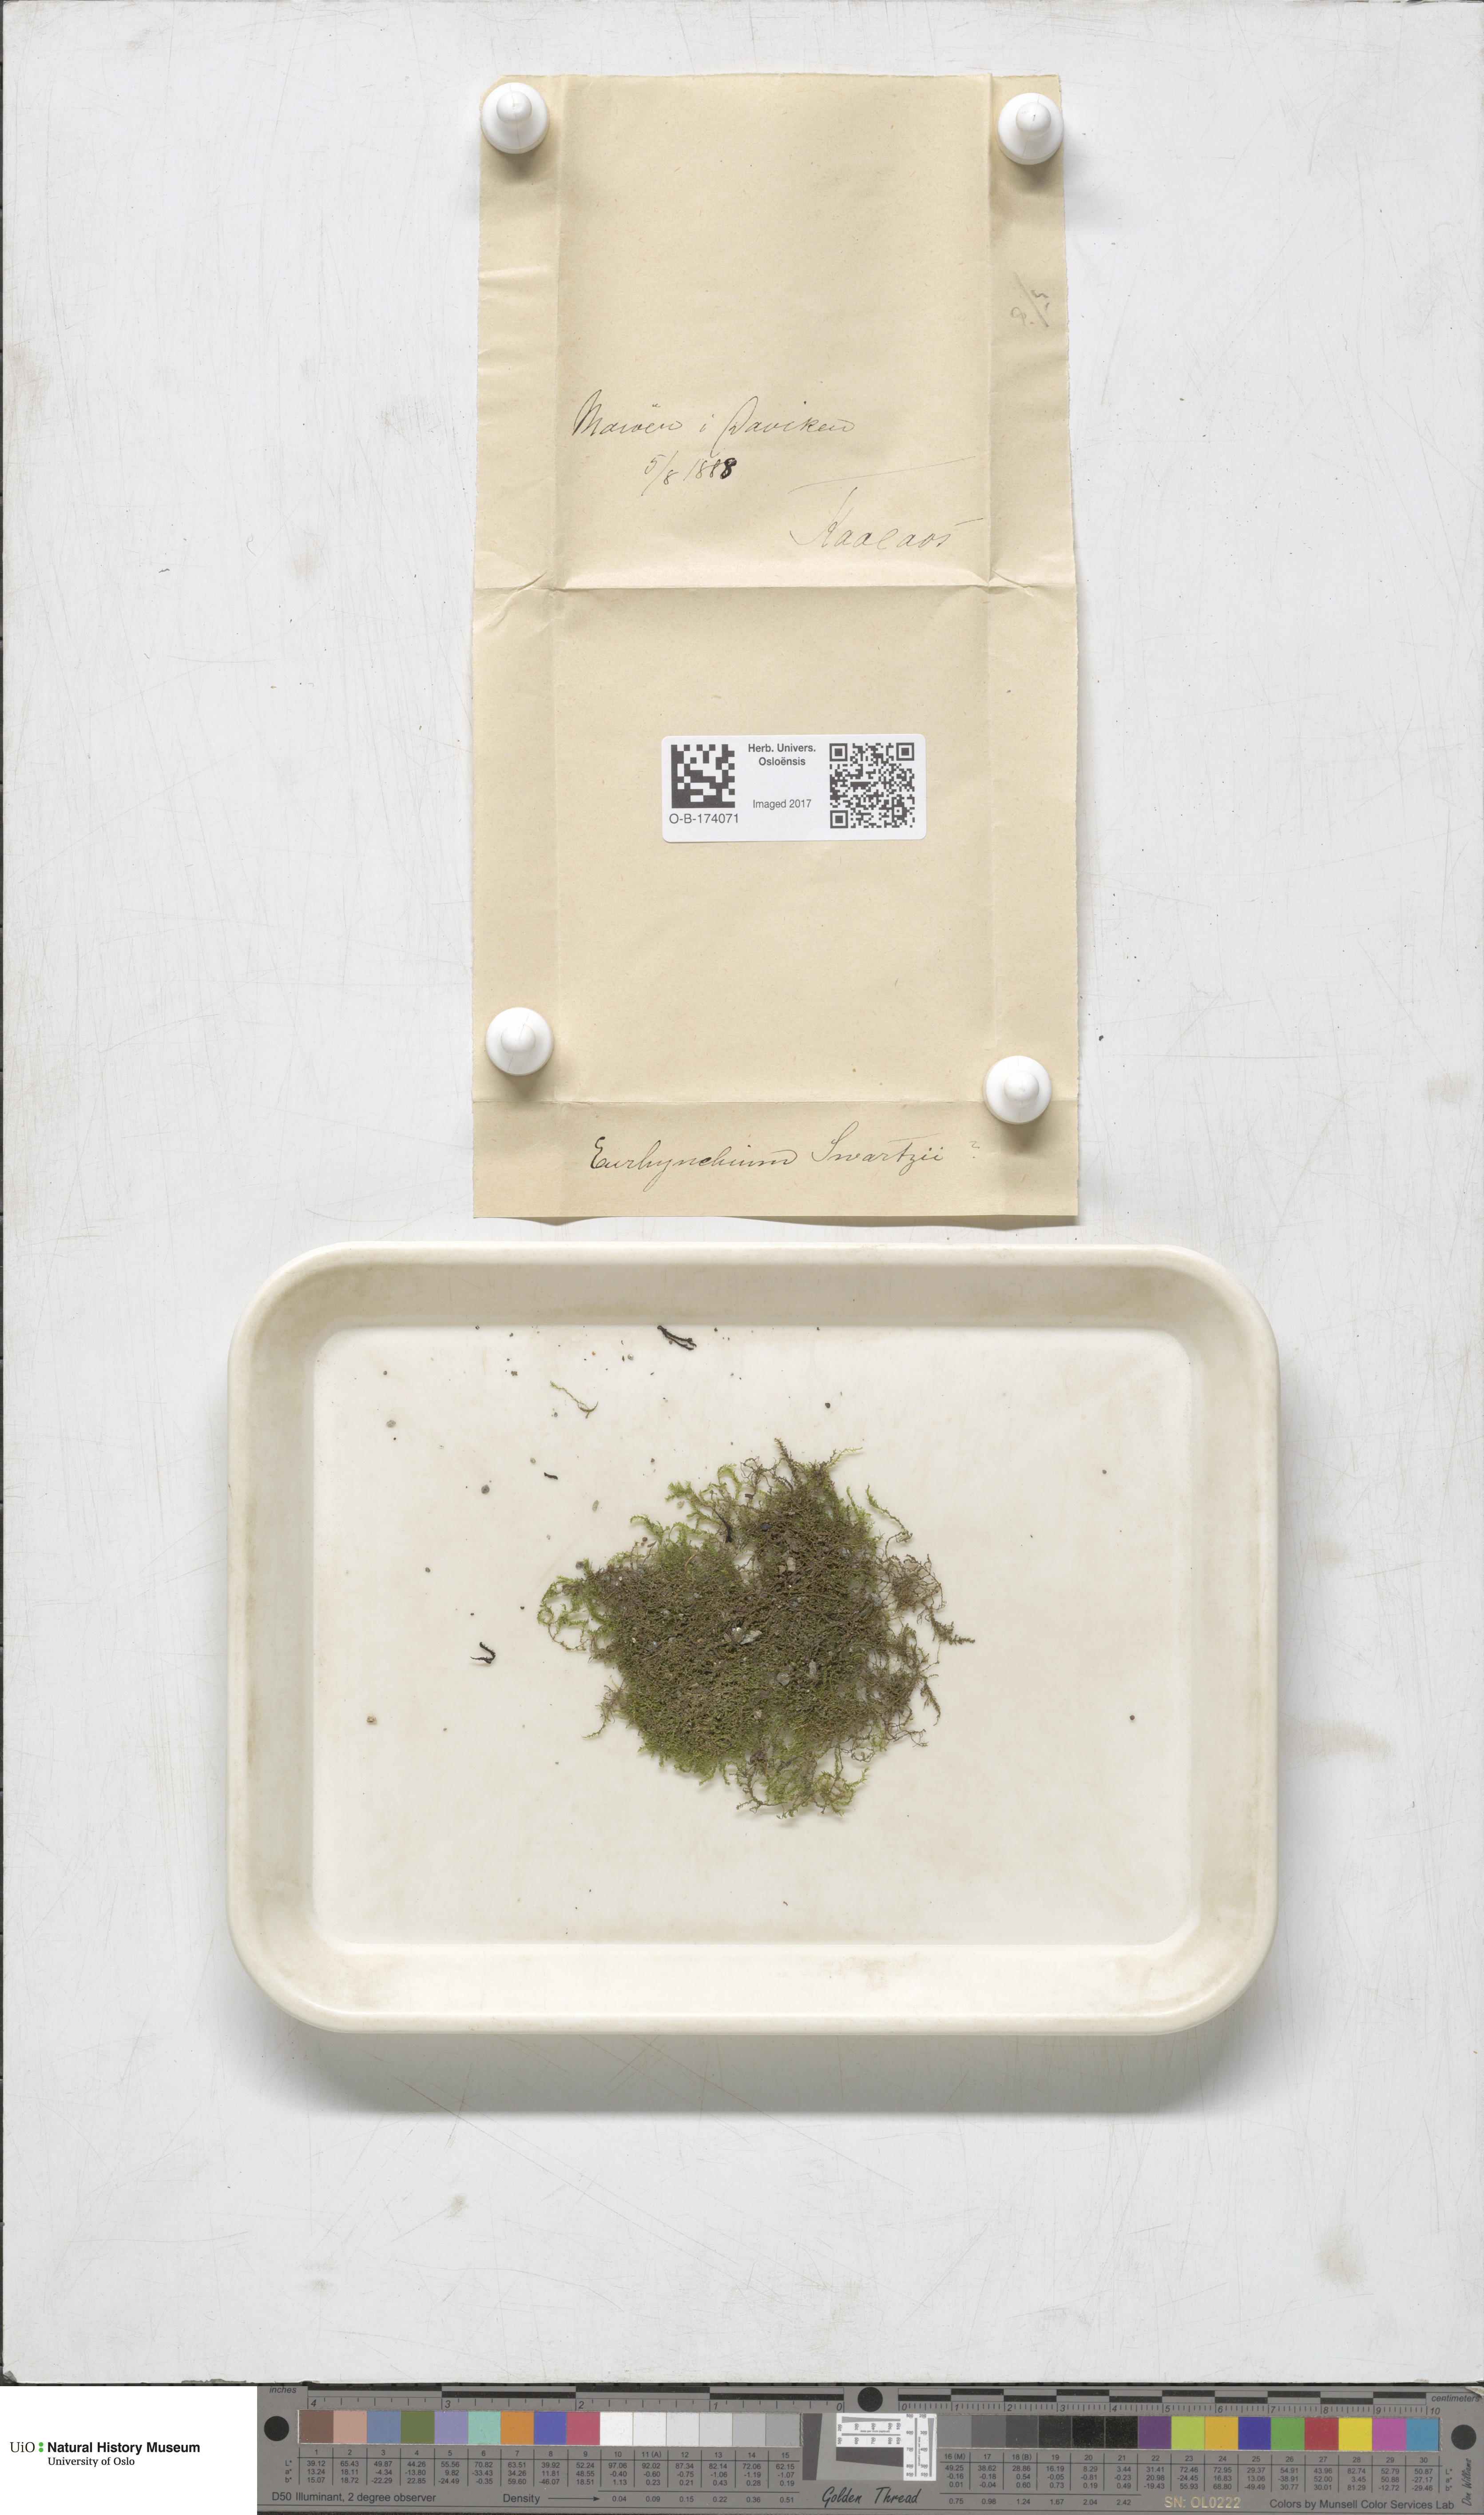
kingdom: Plantae
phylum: Bryophyta
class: Bryopsida
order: Hypnales
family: Brachytheciaceae
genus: Oxyrrhynchium
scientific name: Oxyrrhynchium hians
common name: Spreading beaked moss
